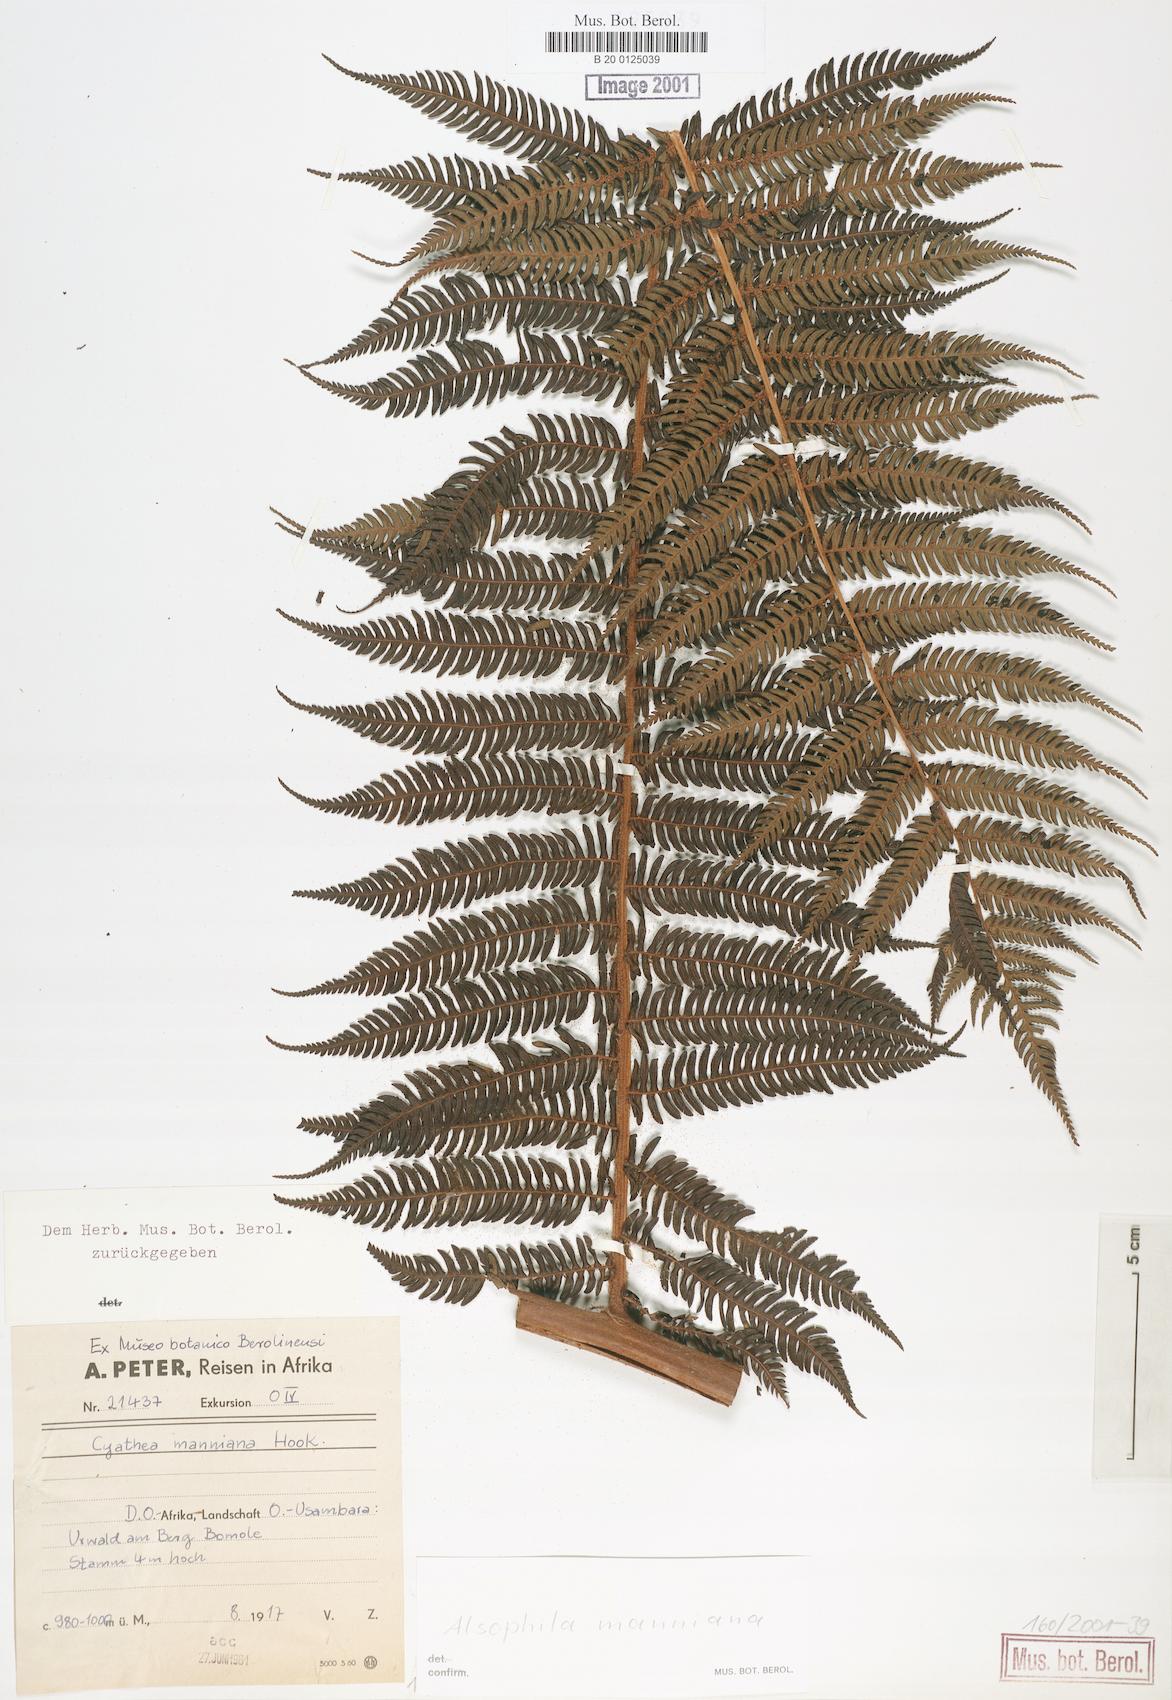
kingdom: Plantae
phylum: Tracheophyta
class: Polypodiopsida
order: Cyatheales
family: Cyatheaceae
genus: Alsophila
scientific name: Alsophila manniana
